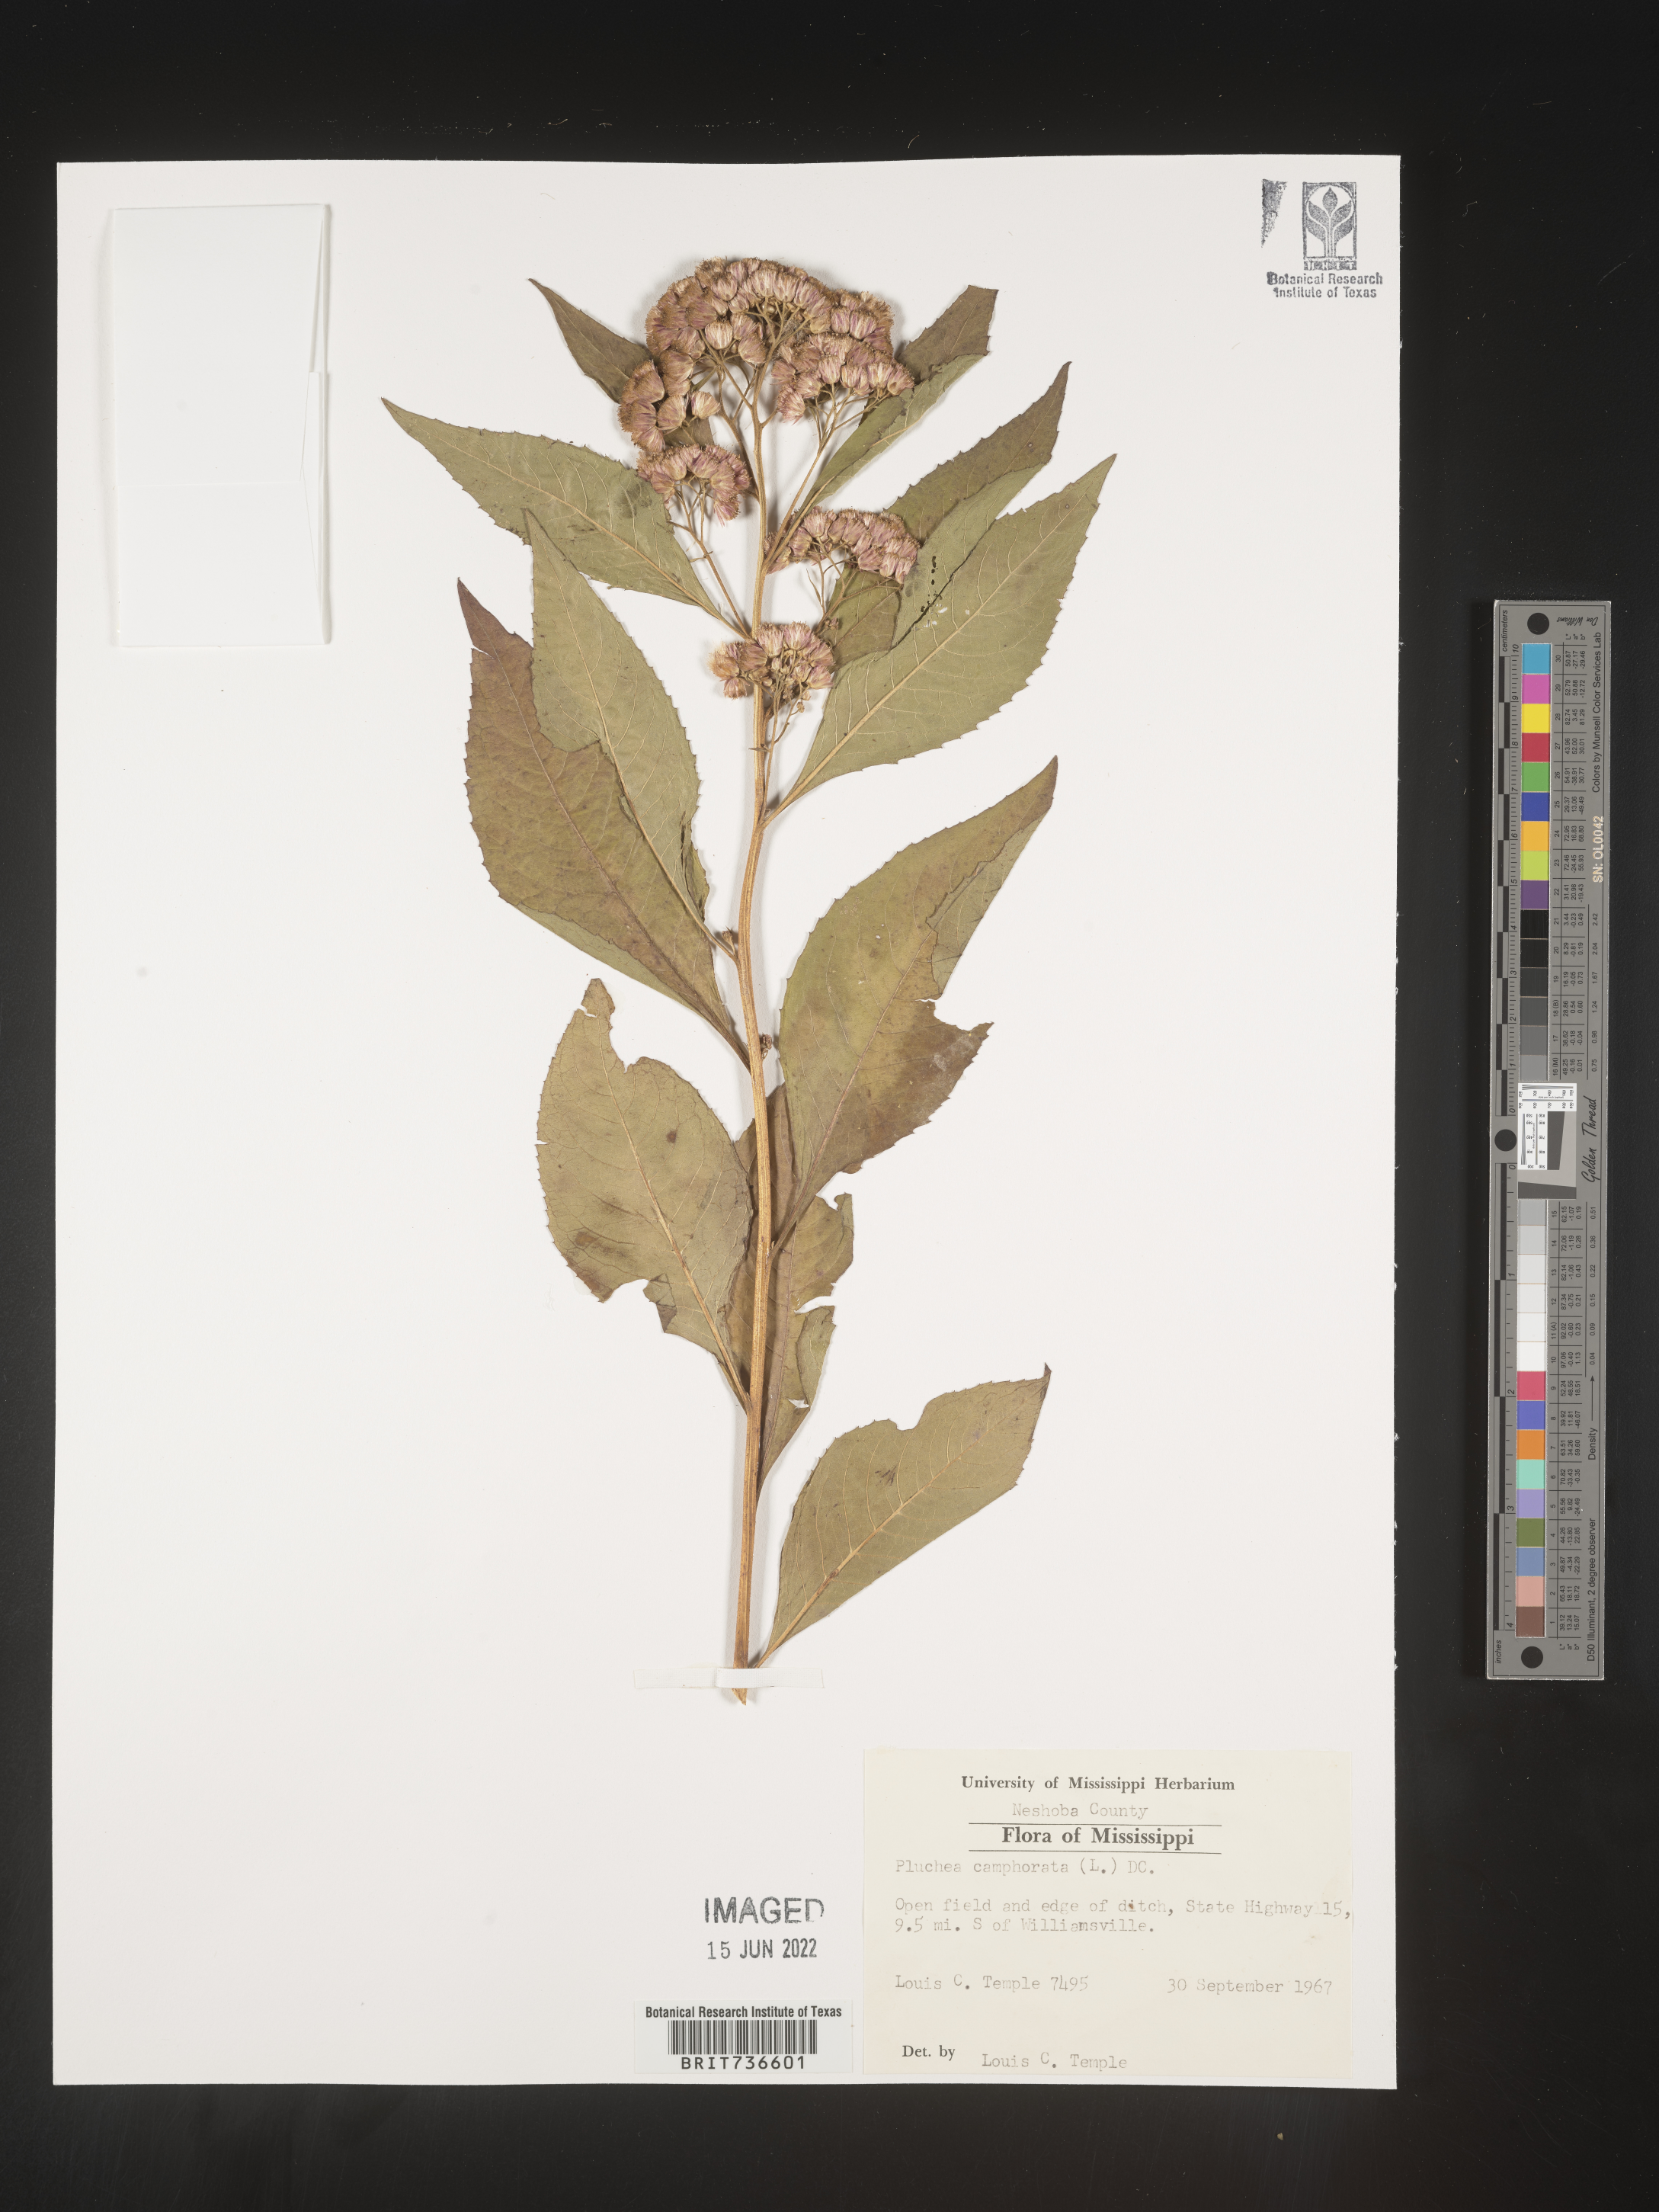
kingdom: Plantae
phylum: Tracheophyta
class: Magnoliopsida
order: Asterales
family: Asteraceae
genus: Pluchea
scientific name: Pluchea camphorata
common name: Camphor pluchea
